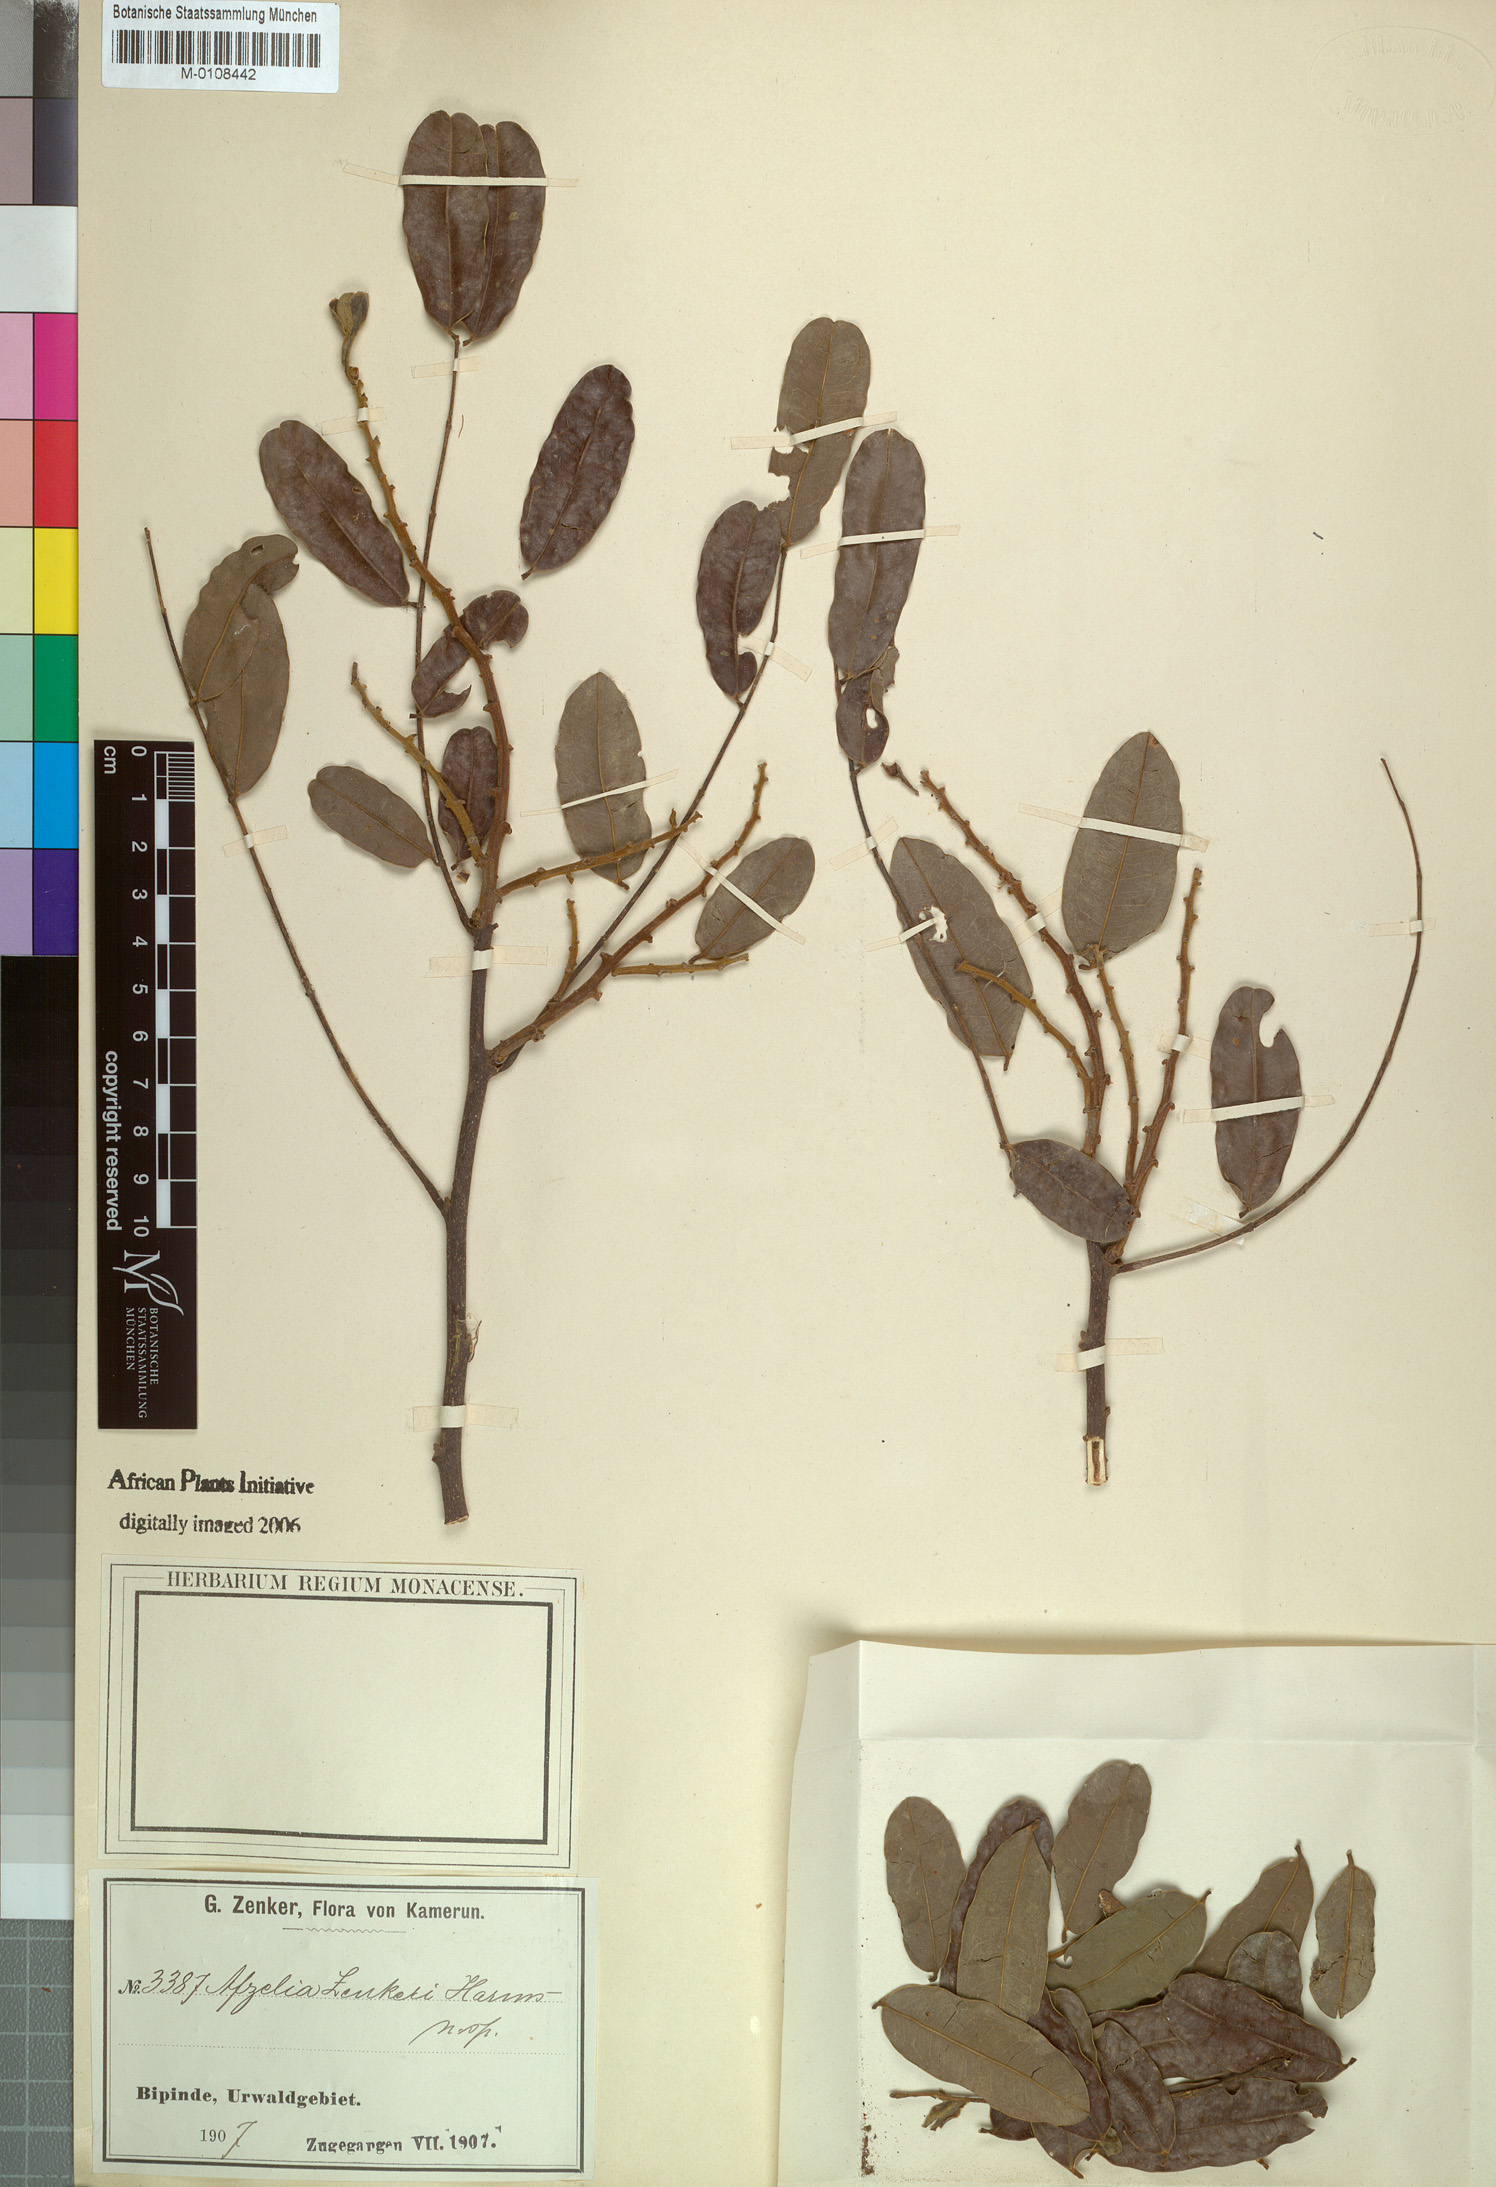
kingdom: Plantae
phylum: Tracheophyta
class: Magnoliopsida
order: Fabales
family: Fabaceae
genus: Afzelia
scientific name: Afzelia pachyloba
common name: White afzelia
